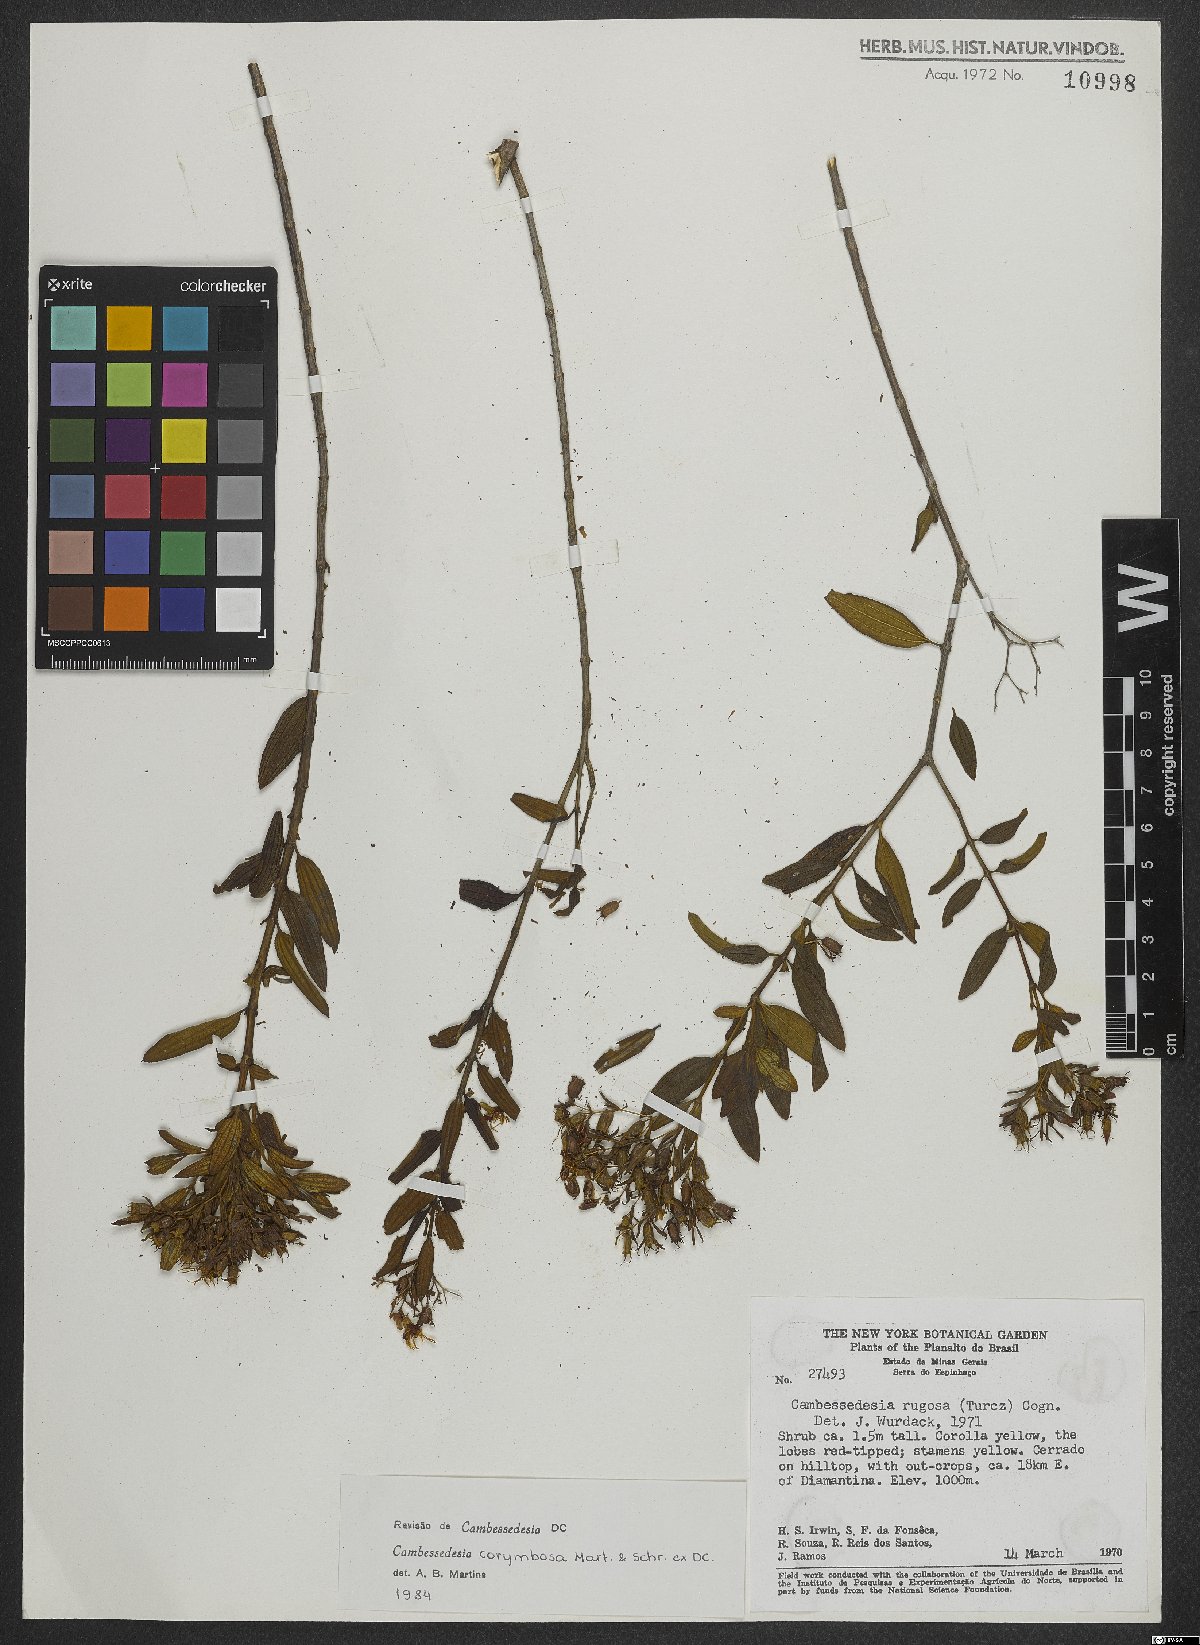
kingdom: Plantae
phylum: Tracheophyta
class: Magnoliopsida
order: Myrtales
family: Melastomataceae
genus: Cambessedesia
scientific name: Cambessedesia corymbosa
